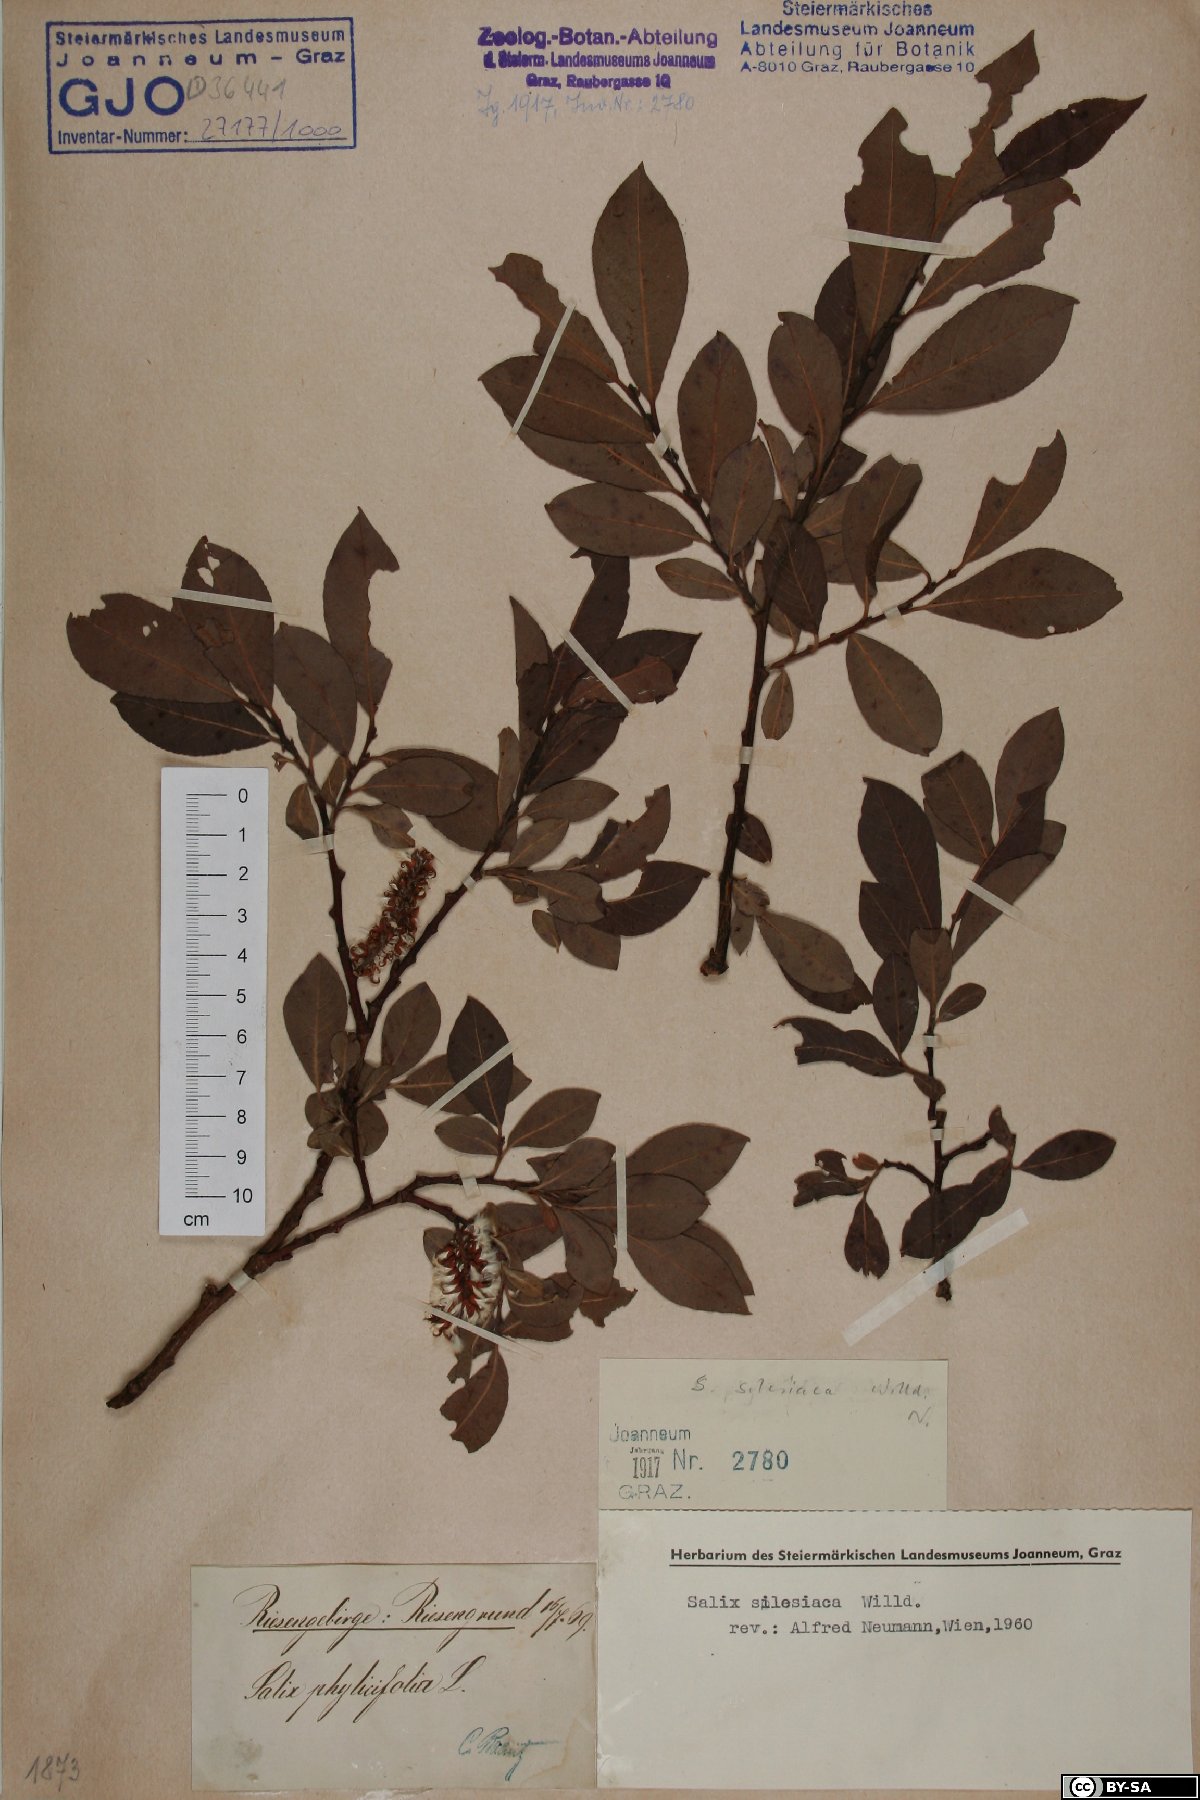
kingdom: Plantae
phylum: Tracheophyta
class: Magnoliopsida
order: Malpighiales
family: Salicaceae
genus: Salix
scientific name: Salix silesiaca
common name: Silesian willow
